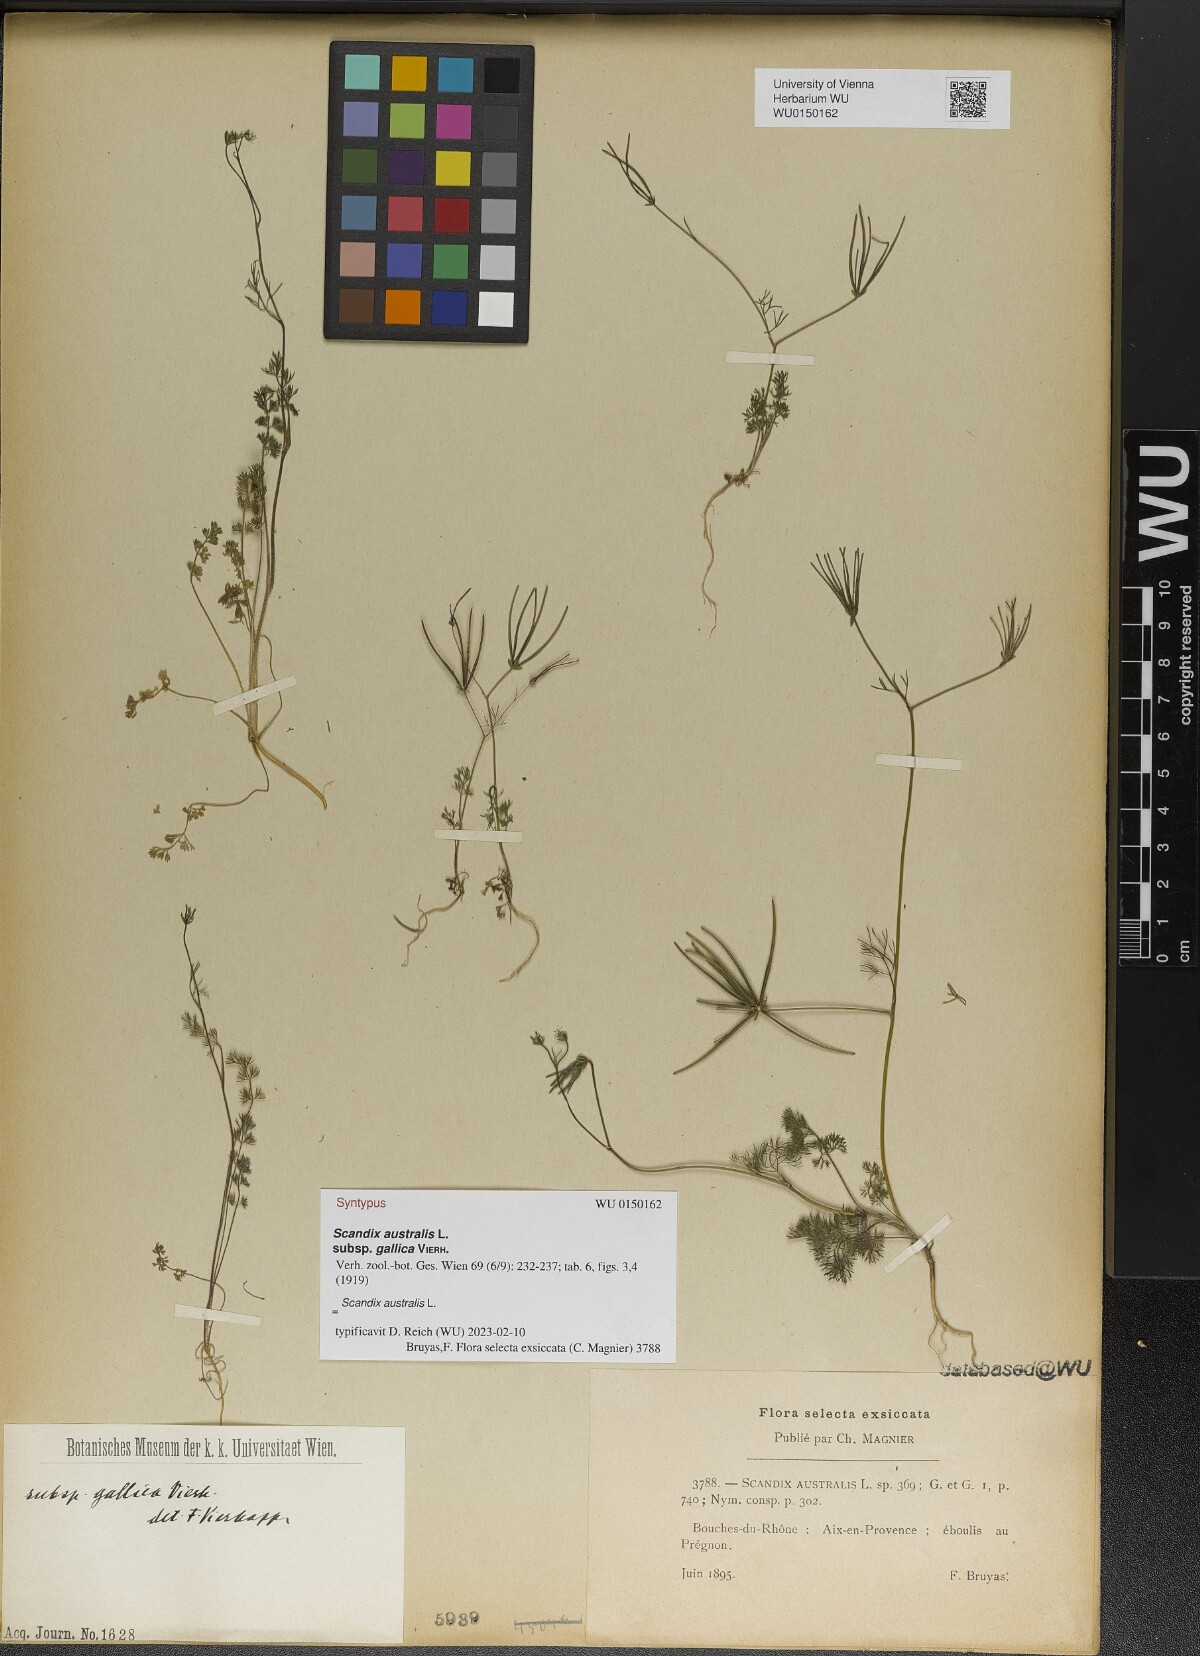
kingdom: Plantae
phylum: Tracheophyta
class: Magnoliopsida
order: Apiales
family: Apiaceae
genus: Scandix
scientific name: Scandix australis
